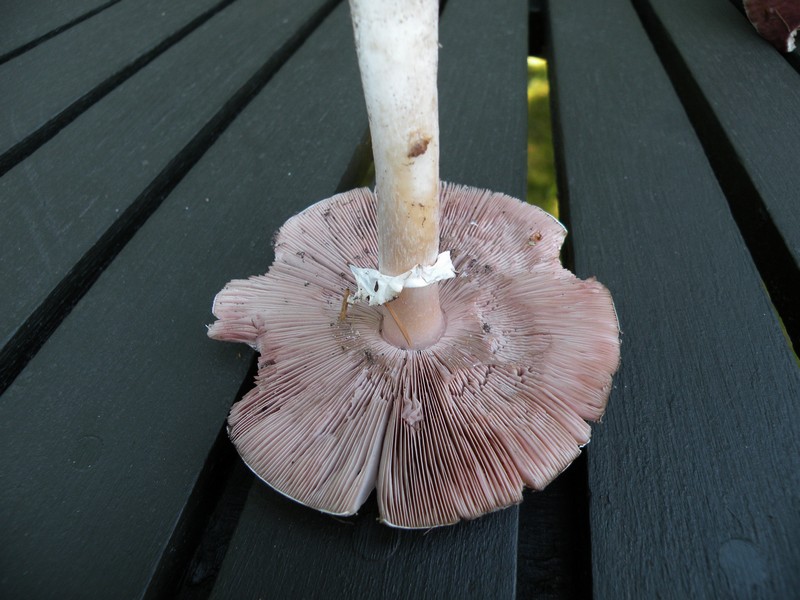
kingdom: Fungi
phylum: Basidiomycota
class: Agaricomycetes
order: Agaricales
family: Agaricaceae
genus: Agaricus
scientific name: Agaricus impudicus
